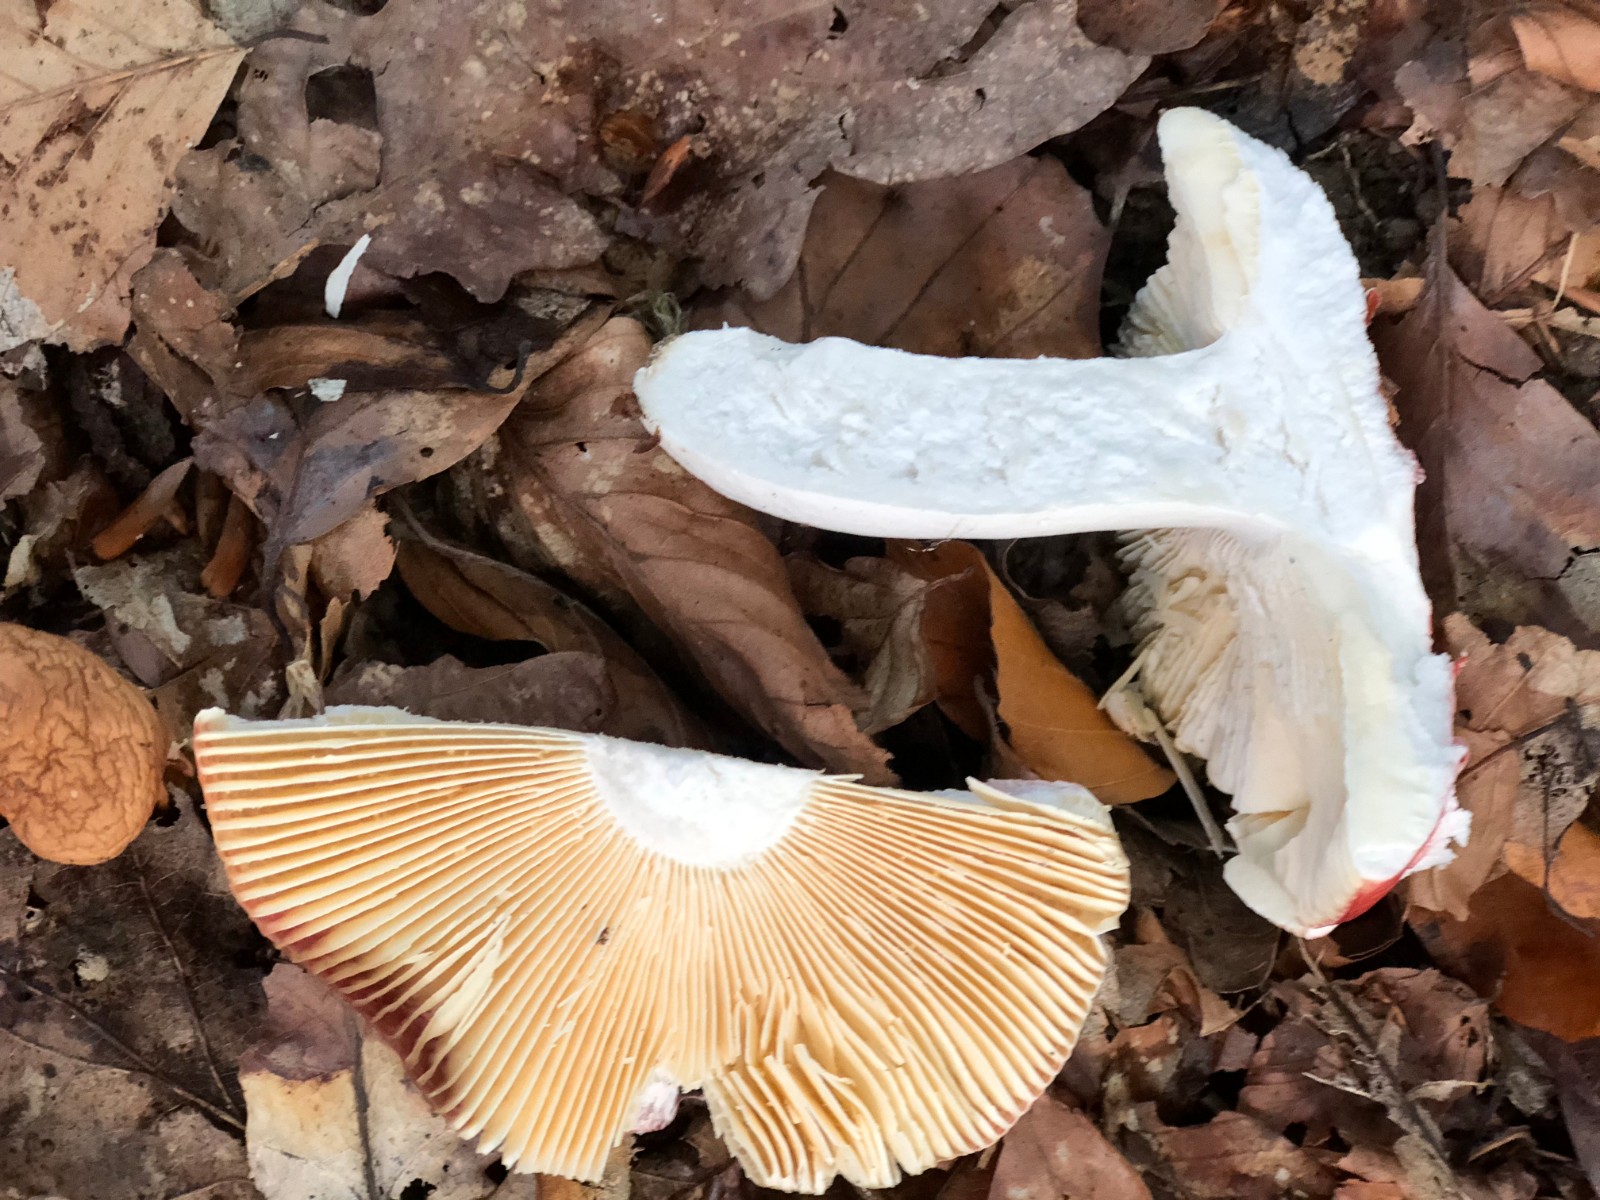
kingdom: Fungi
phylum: Basidiomycota
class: Agaricomycetes
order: Russulales
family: Russulaceae
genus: Russula
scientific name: Russula pseudointegra
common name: cinnoberrød skørhat
